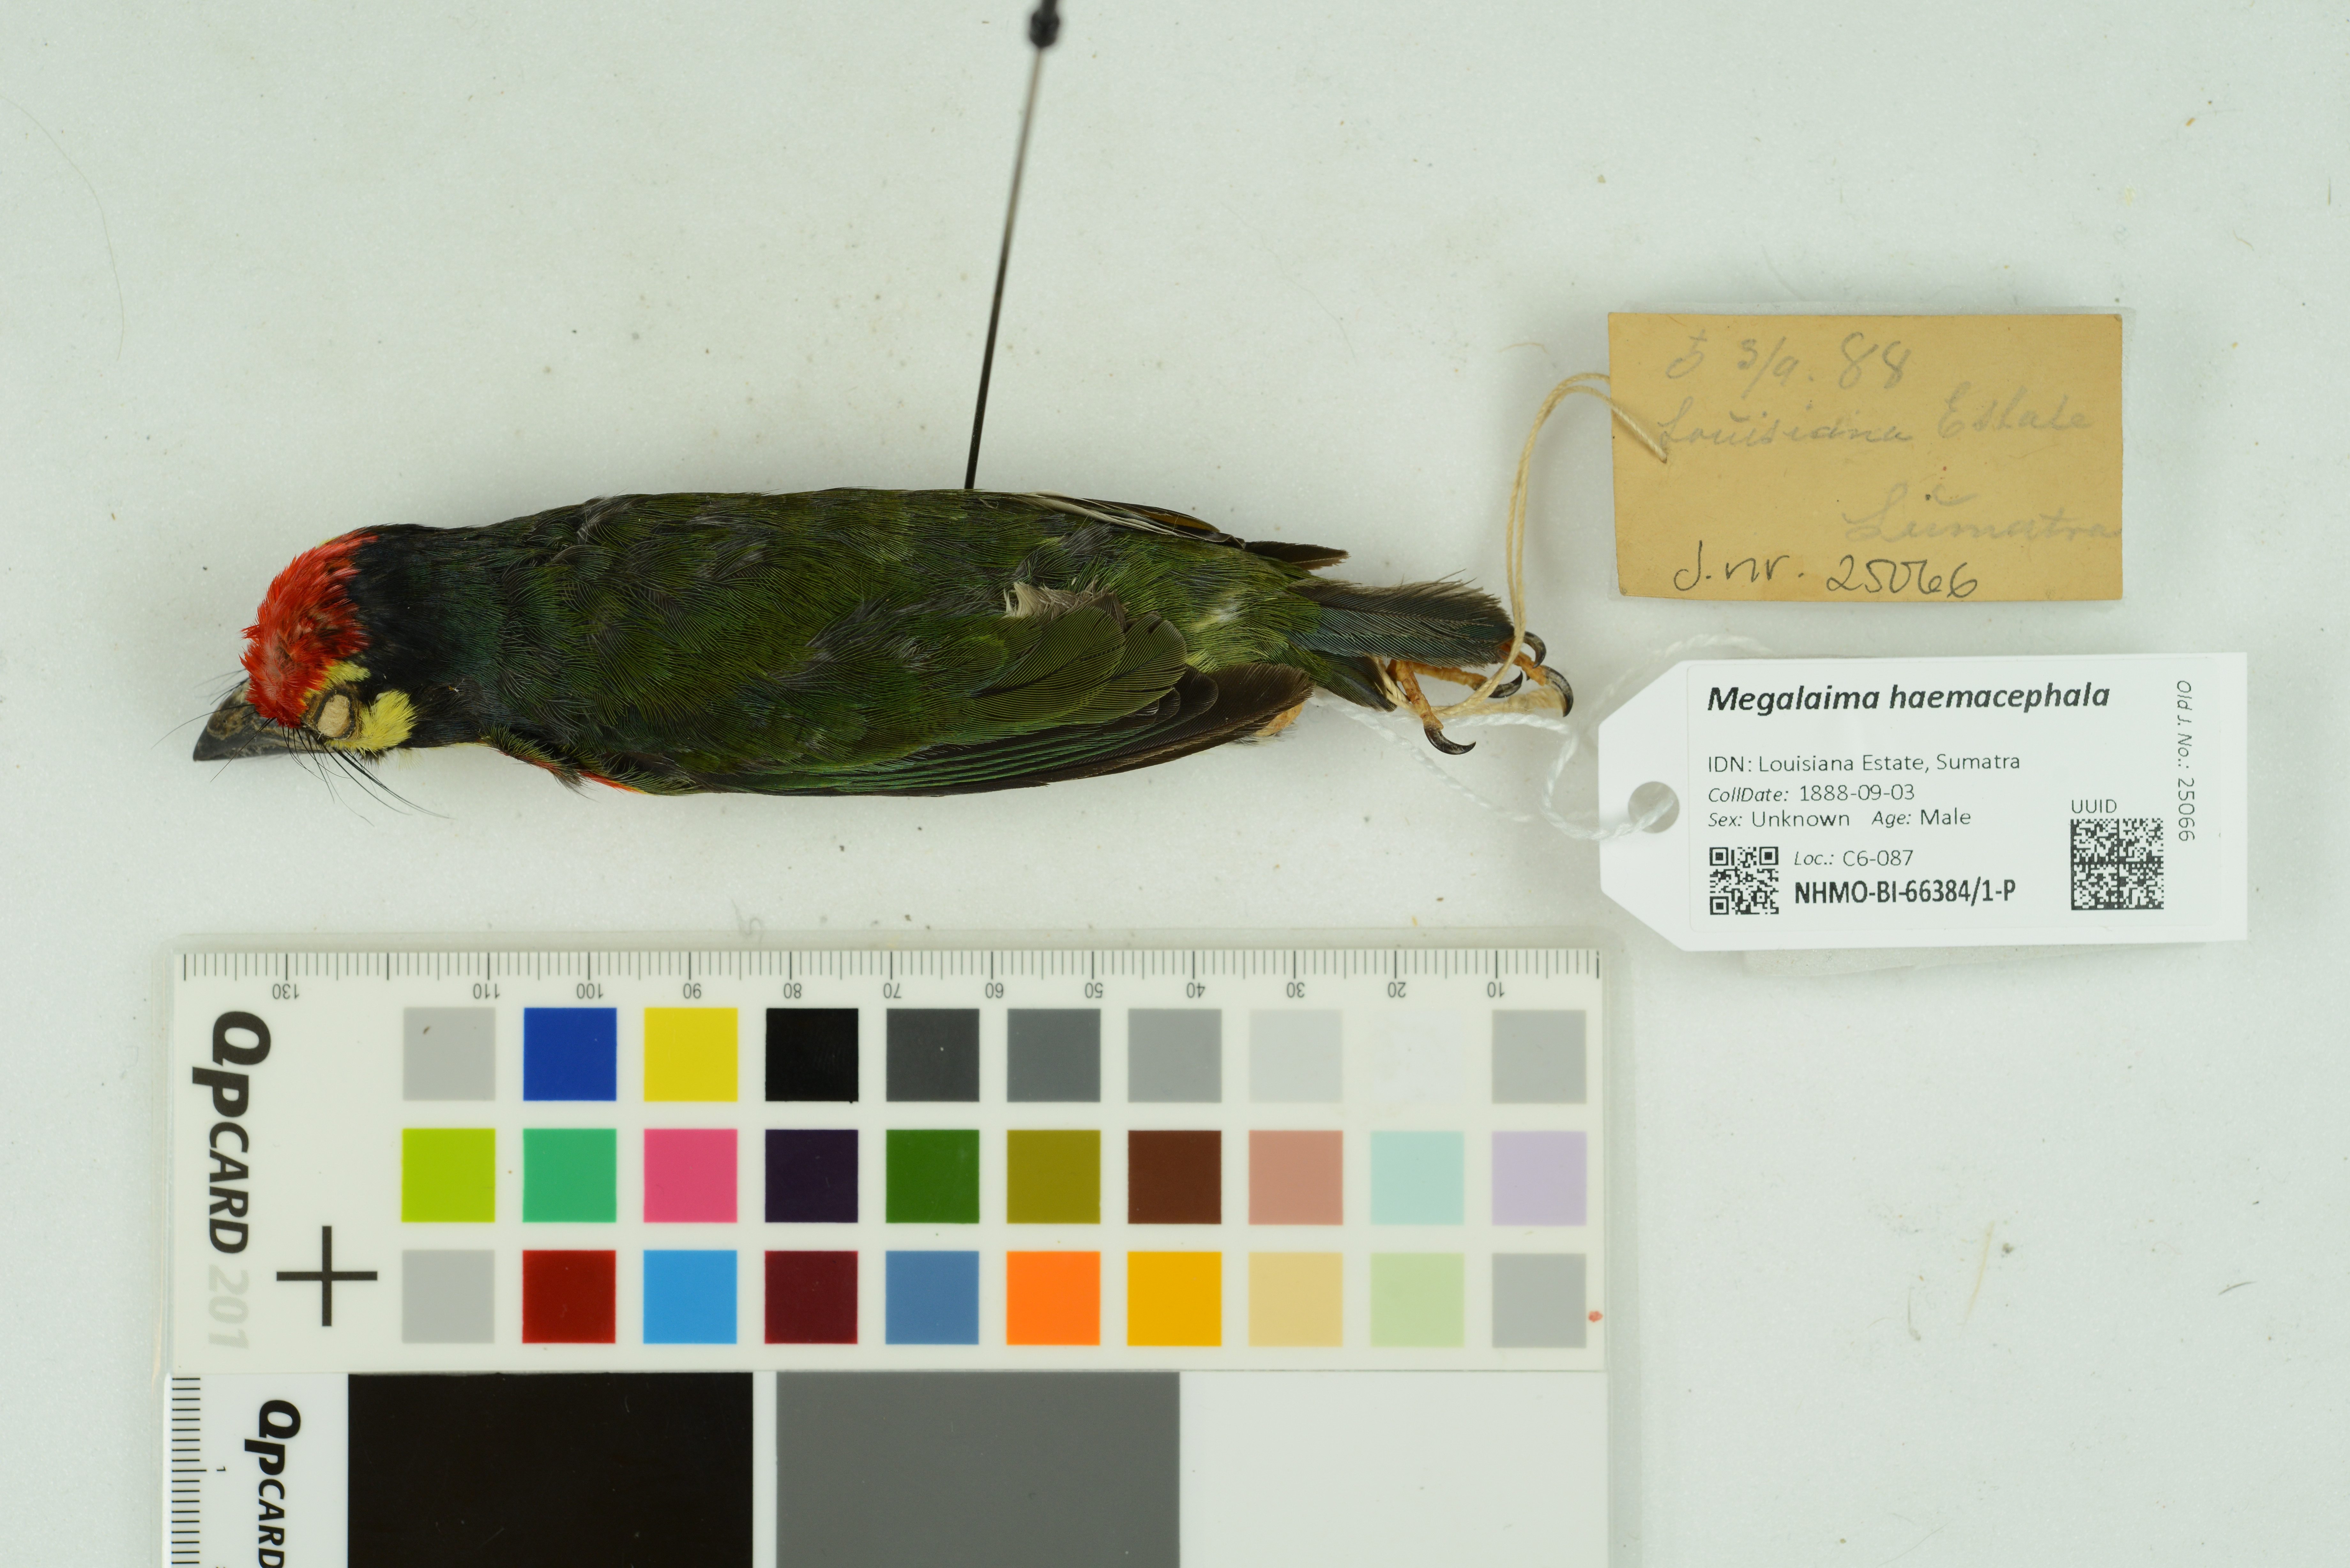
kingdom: Animalia
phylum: Chordata
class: Aves
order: Piciformes
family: Megalaimidae
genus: Psilopogon
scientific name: Psilopogon haemacephalus
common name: Coppersmith barbet
